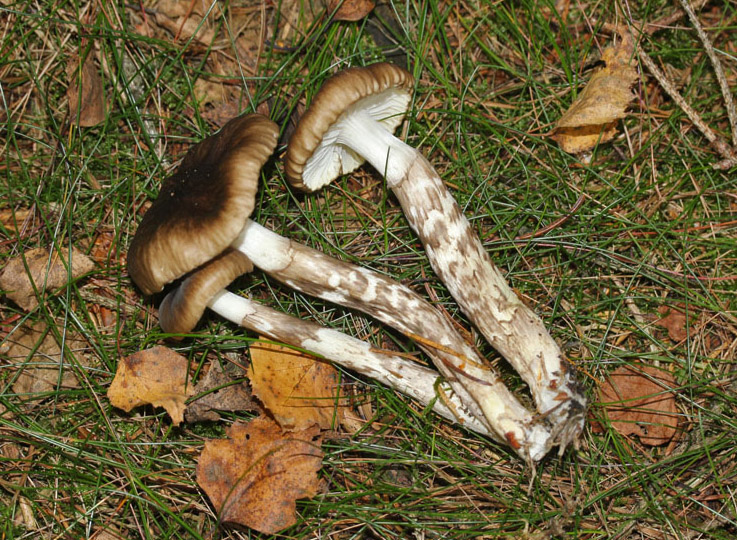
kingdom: Fungi
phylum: Basidiomycota
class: Agaricomycetes
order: Agaricales
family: Hygrophoraceae
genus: Hygrophorus
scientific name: Hygrophorus olivaceoalbus
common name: hvidbrun sneglehat
